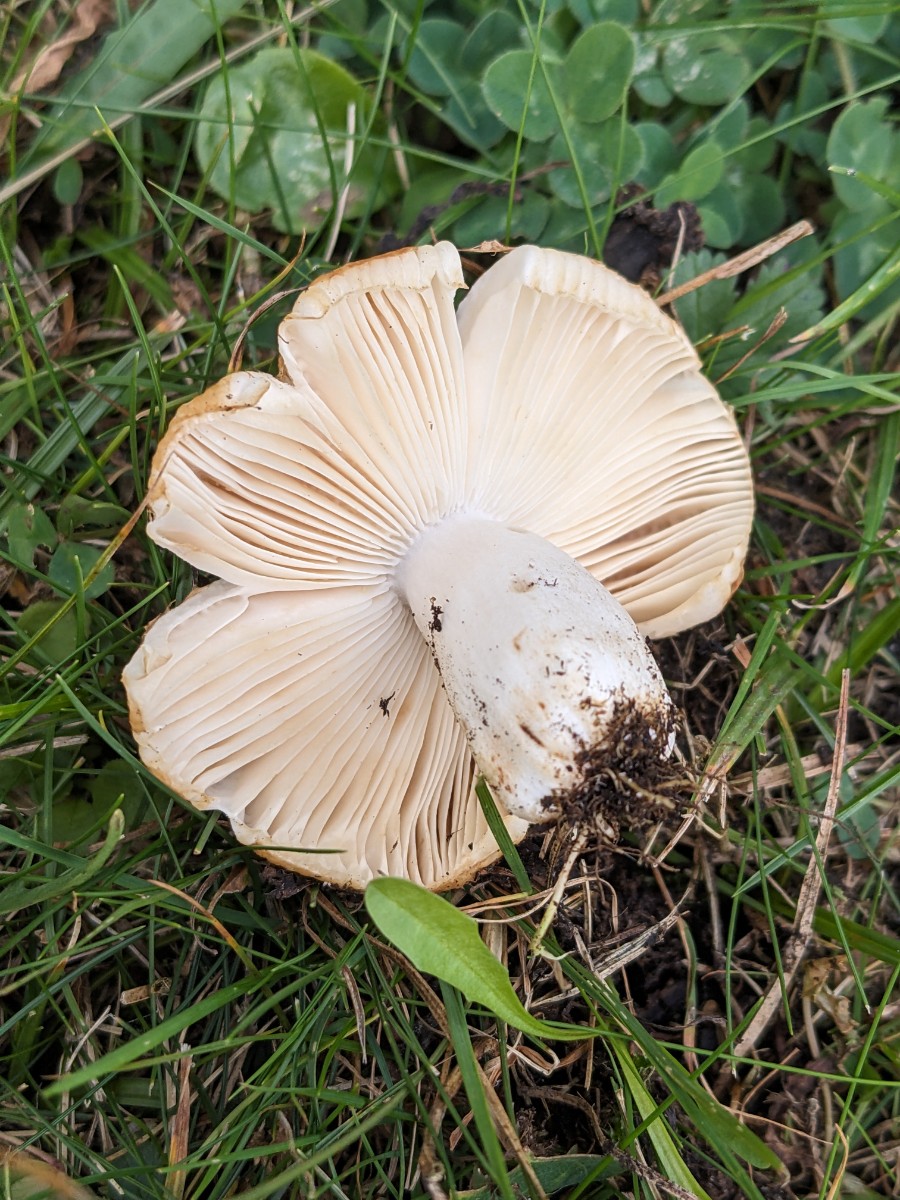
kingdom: Fungi
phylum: Basidiomycota
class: Agaricomycetes
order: Russulales
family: Russulaceae
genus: Russula
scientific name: Russula insignis
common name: gulfodet kam-skørhat
